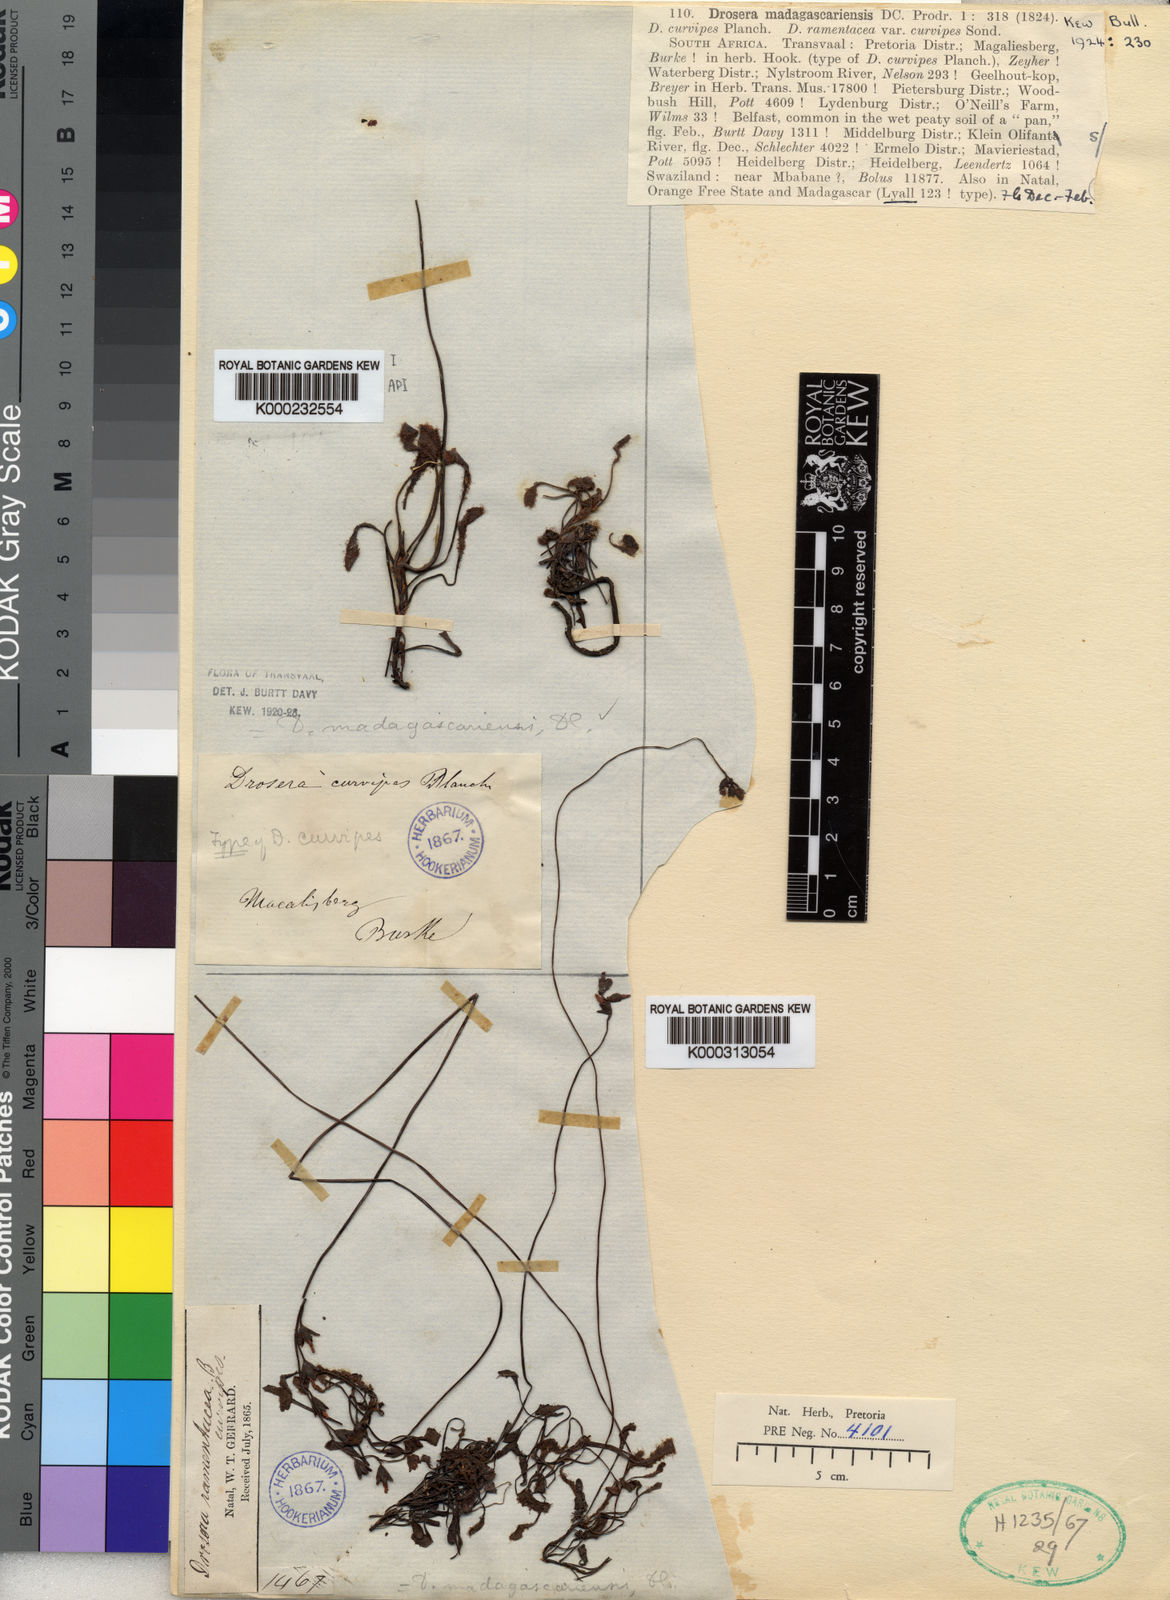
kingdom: Plantae
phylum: Tracheophyta
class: Magnoliopsida
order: Caryophyllales
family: Droseraceae
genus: Drosera
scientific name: Drosera madagascariensis
